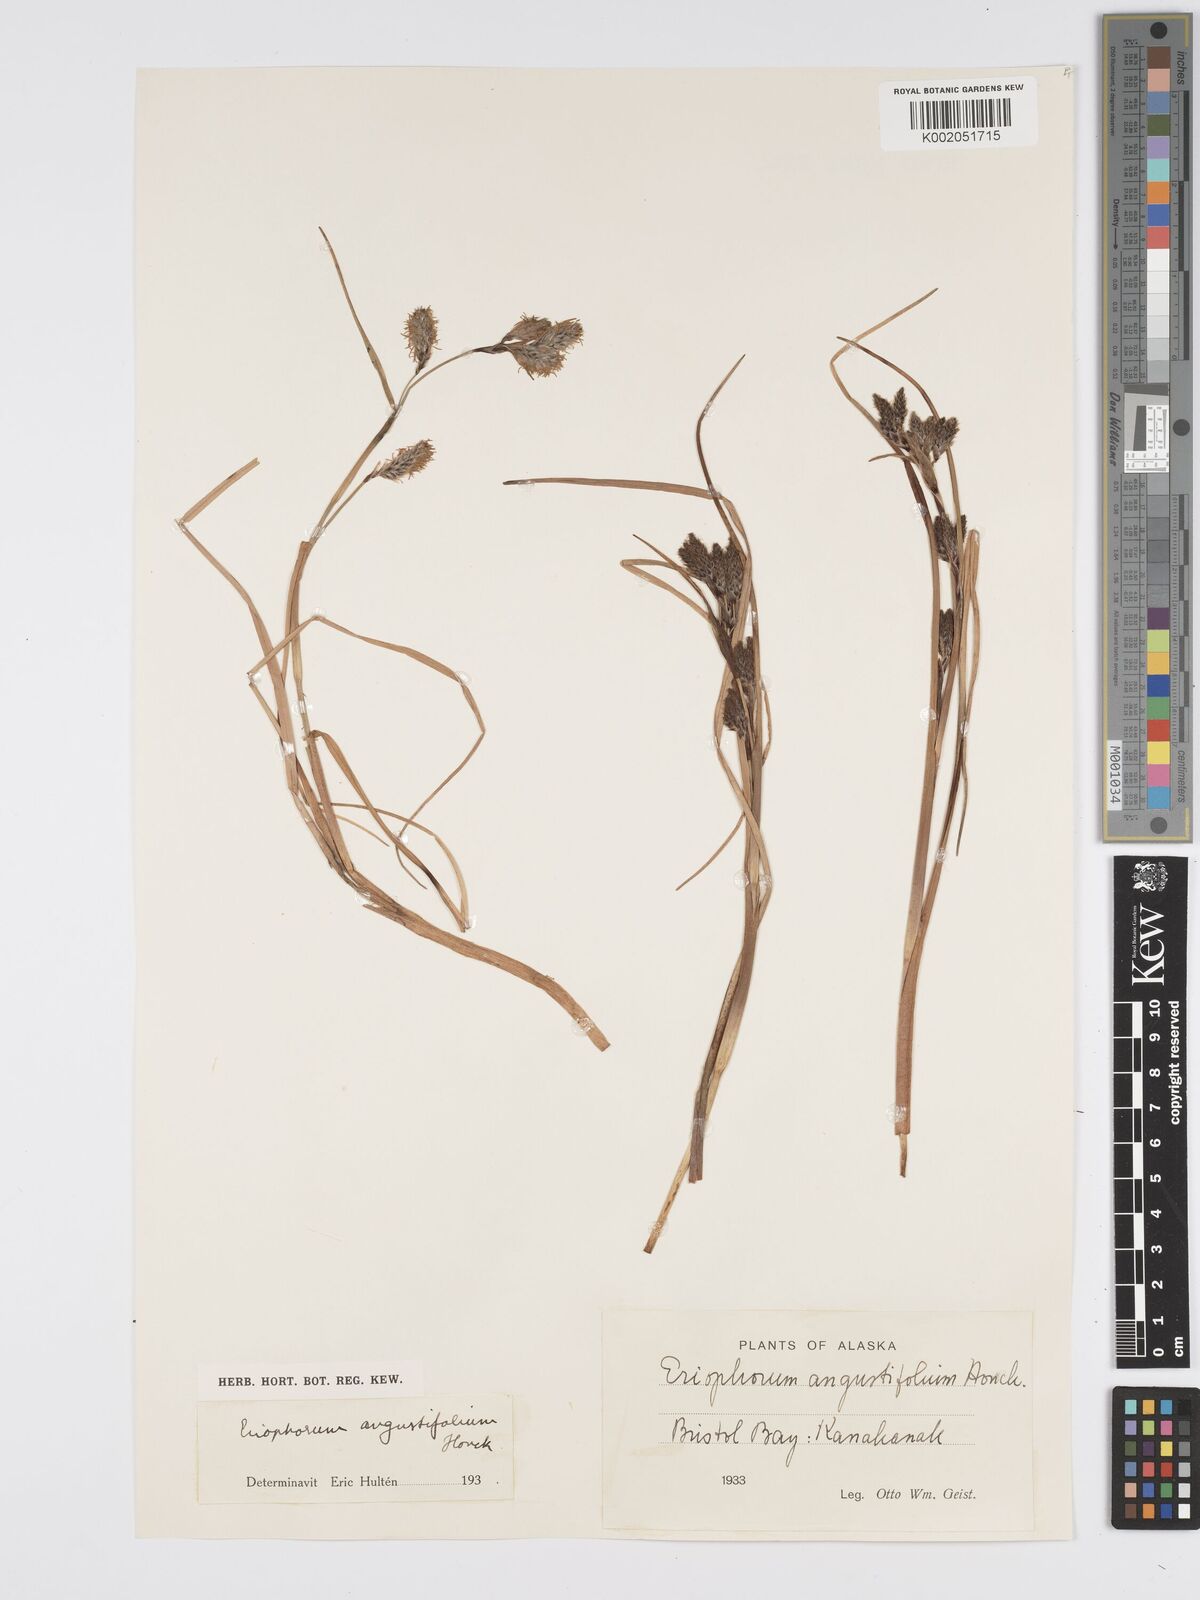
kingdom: Plantae
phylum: Tracheophyta
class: Liliopsida
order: Poales
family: Cyperaceae
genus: Eriophorum
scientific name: Eriophorum angustifolium
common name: Common cottongrass
